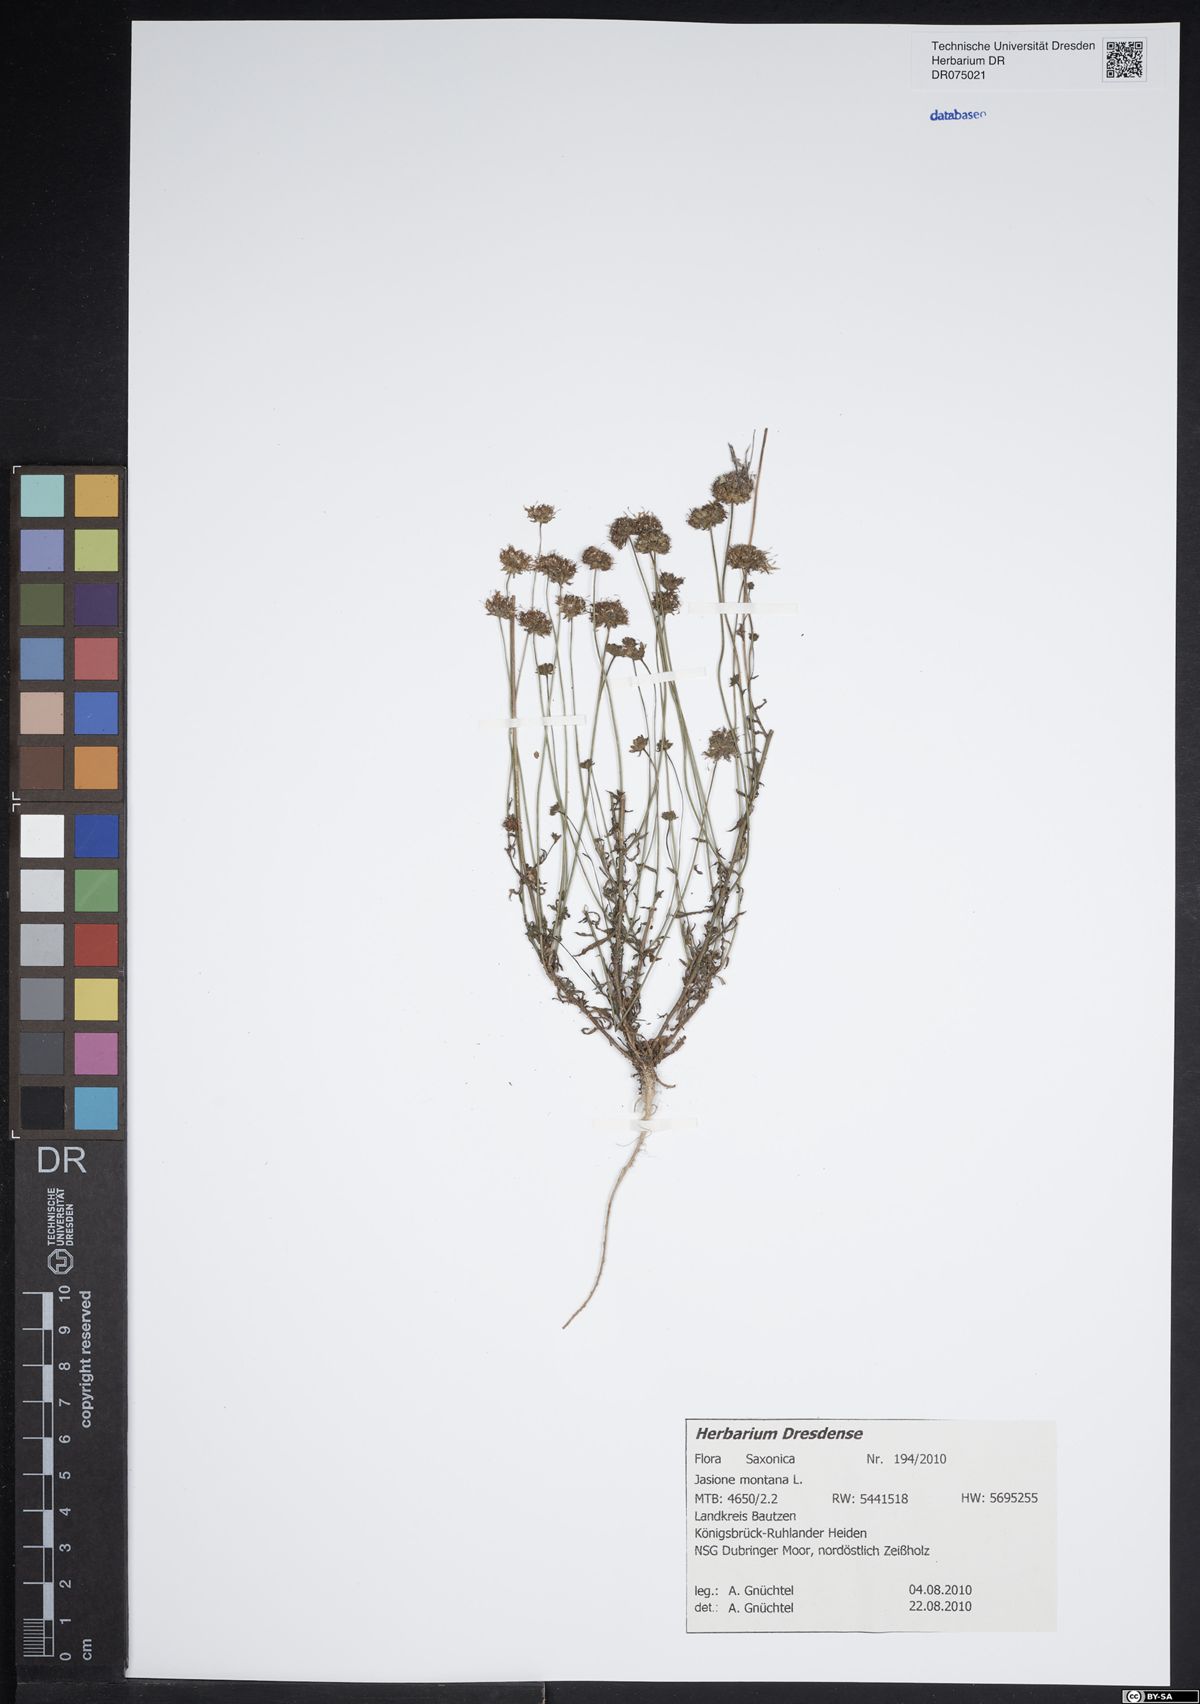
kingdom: Plantae
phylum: Tracheophyta
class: Magnoliopsida
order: Asterales
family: Campanulaceae
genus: Jasione
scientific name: Jasione montana
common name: Sheep's-bit
